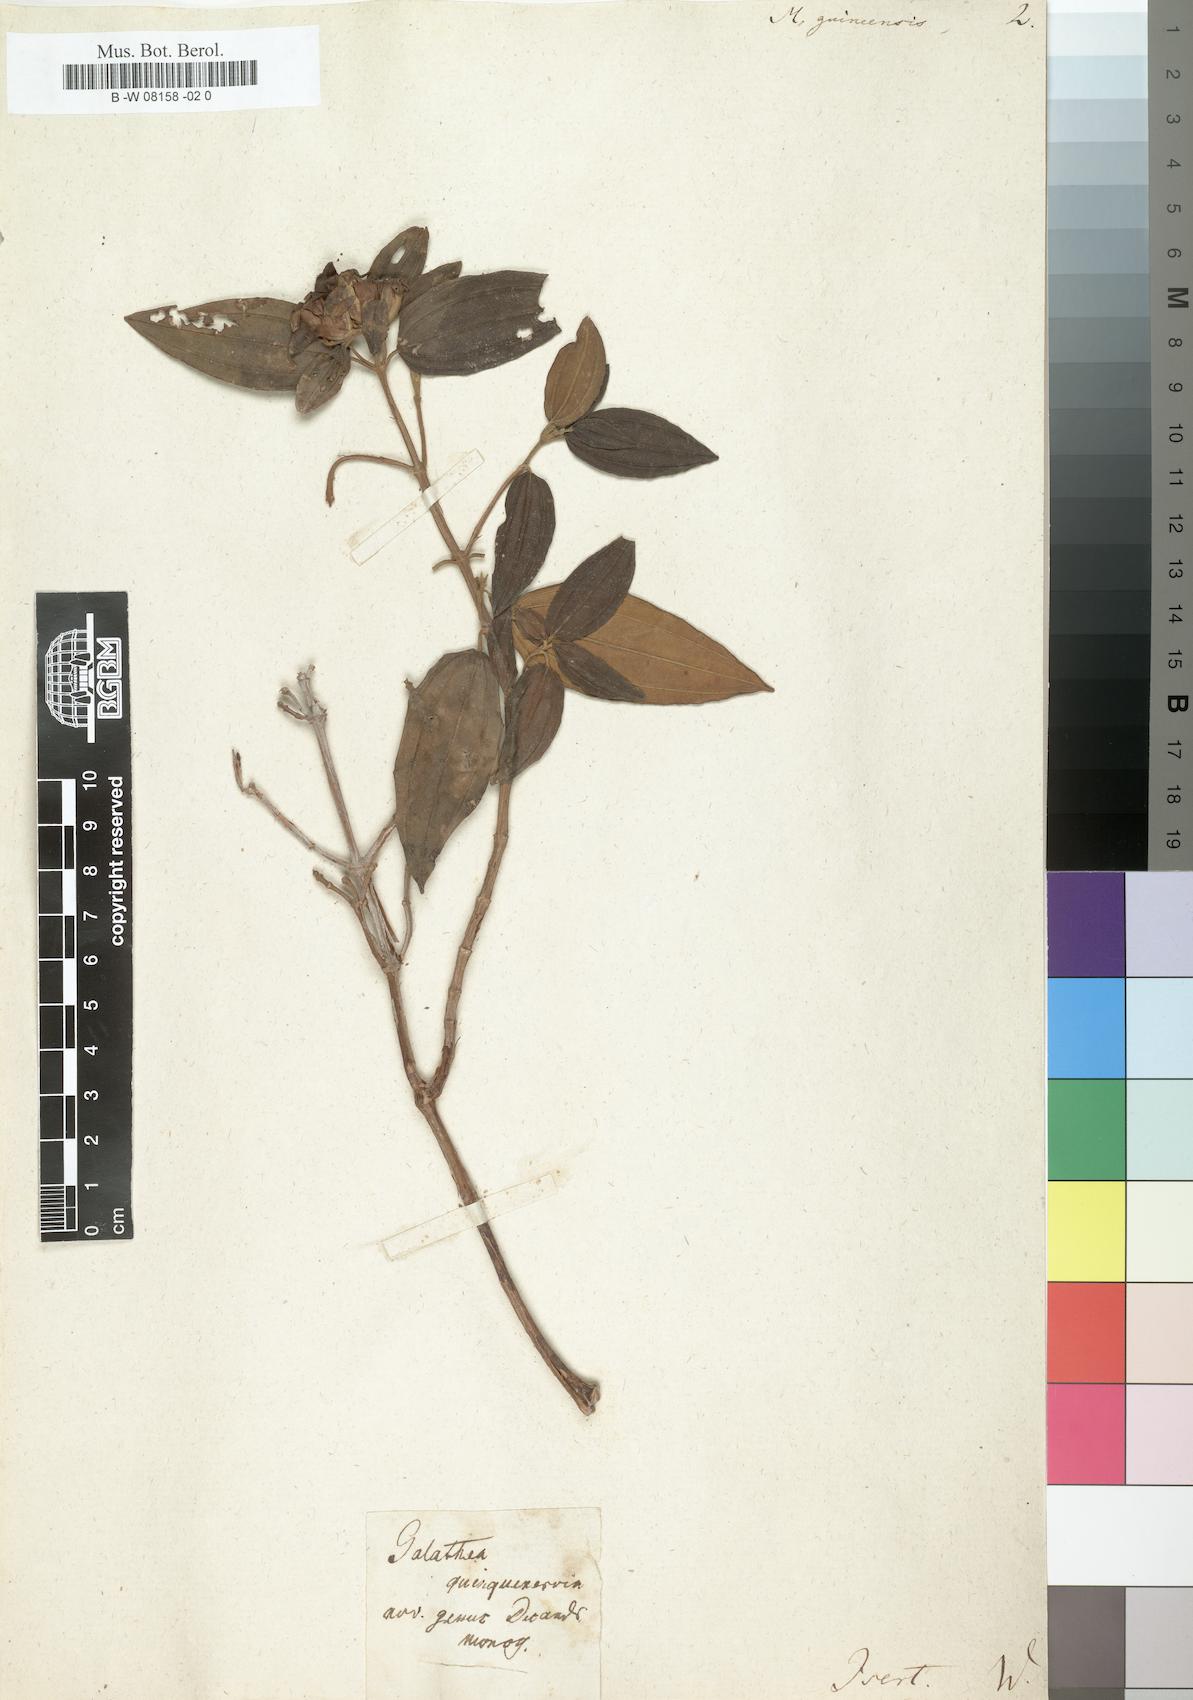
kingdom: Plantae
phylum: Tracheophyta
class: Magnoliopsida
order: Myrtales
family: Melastomataceae
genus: Meriania
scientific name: Meriania
